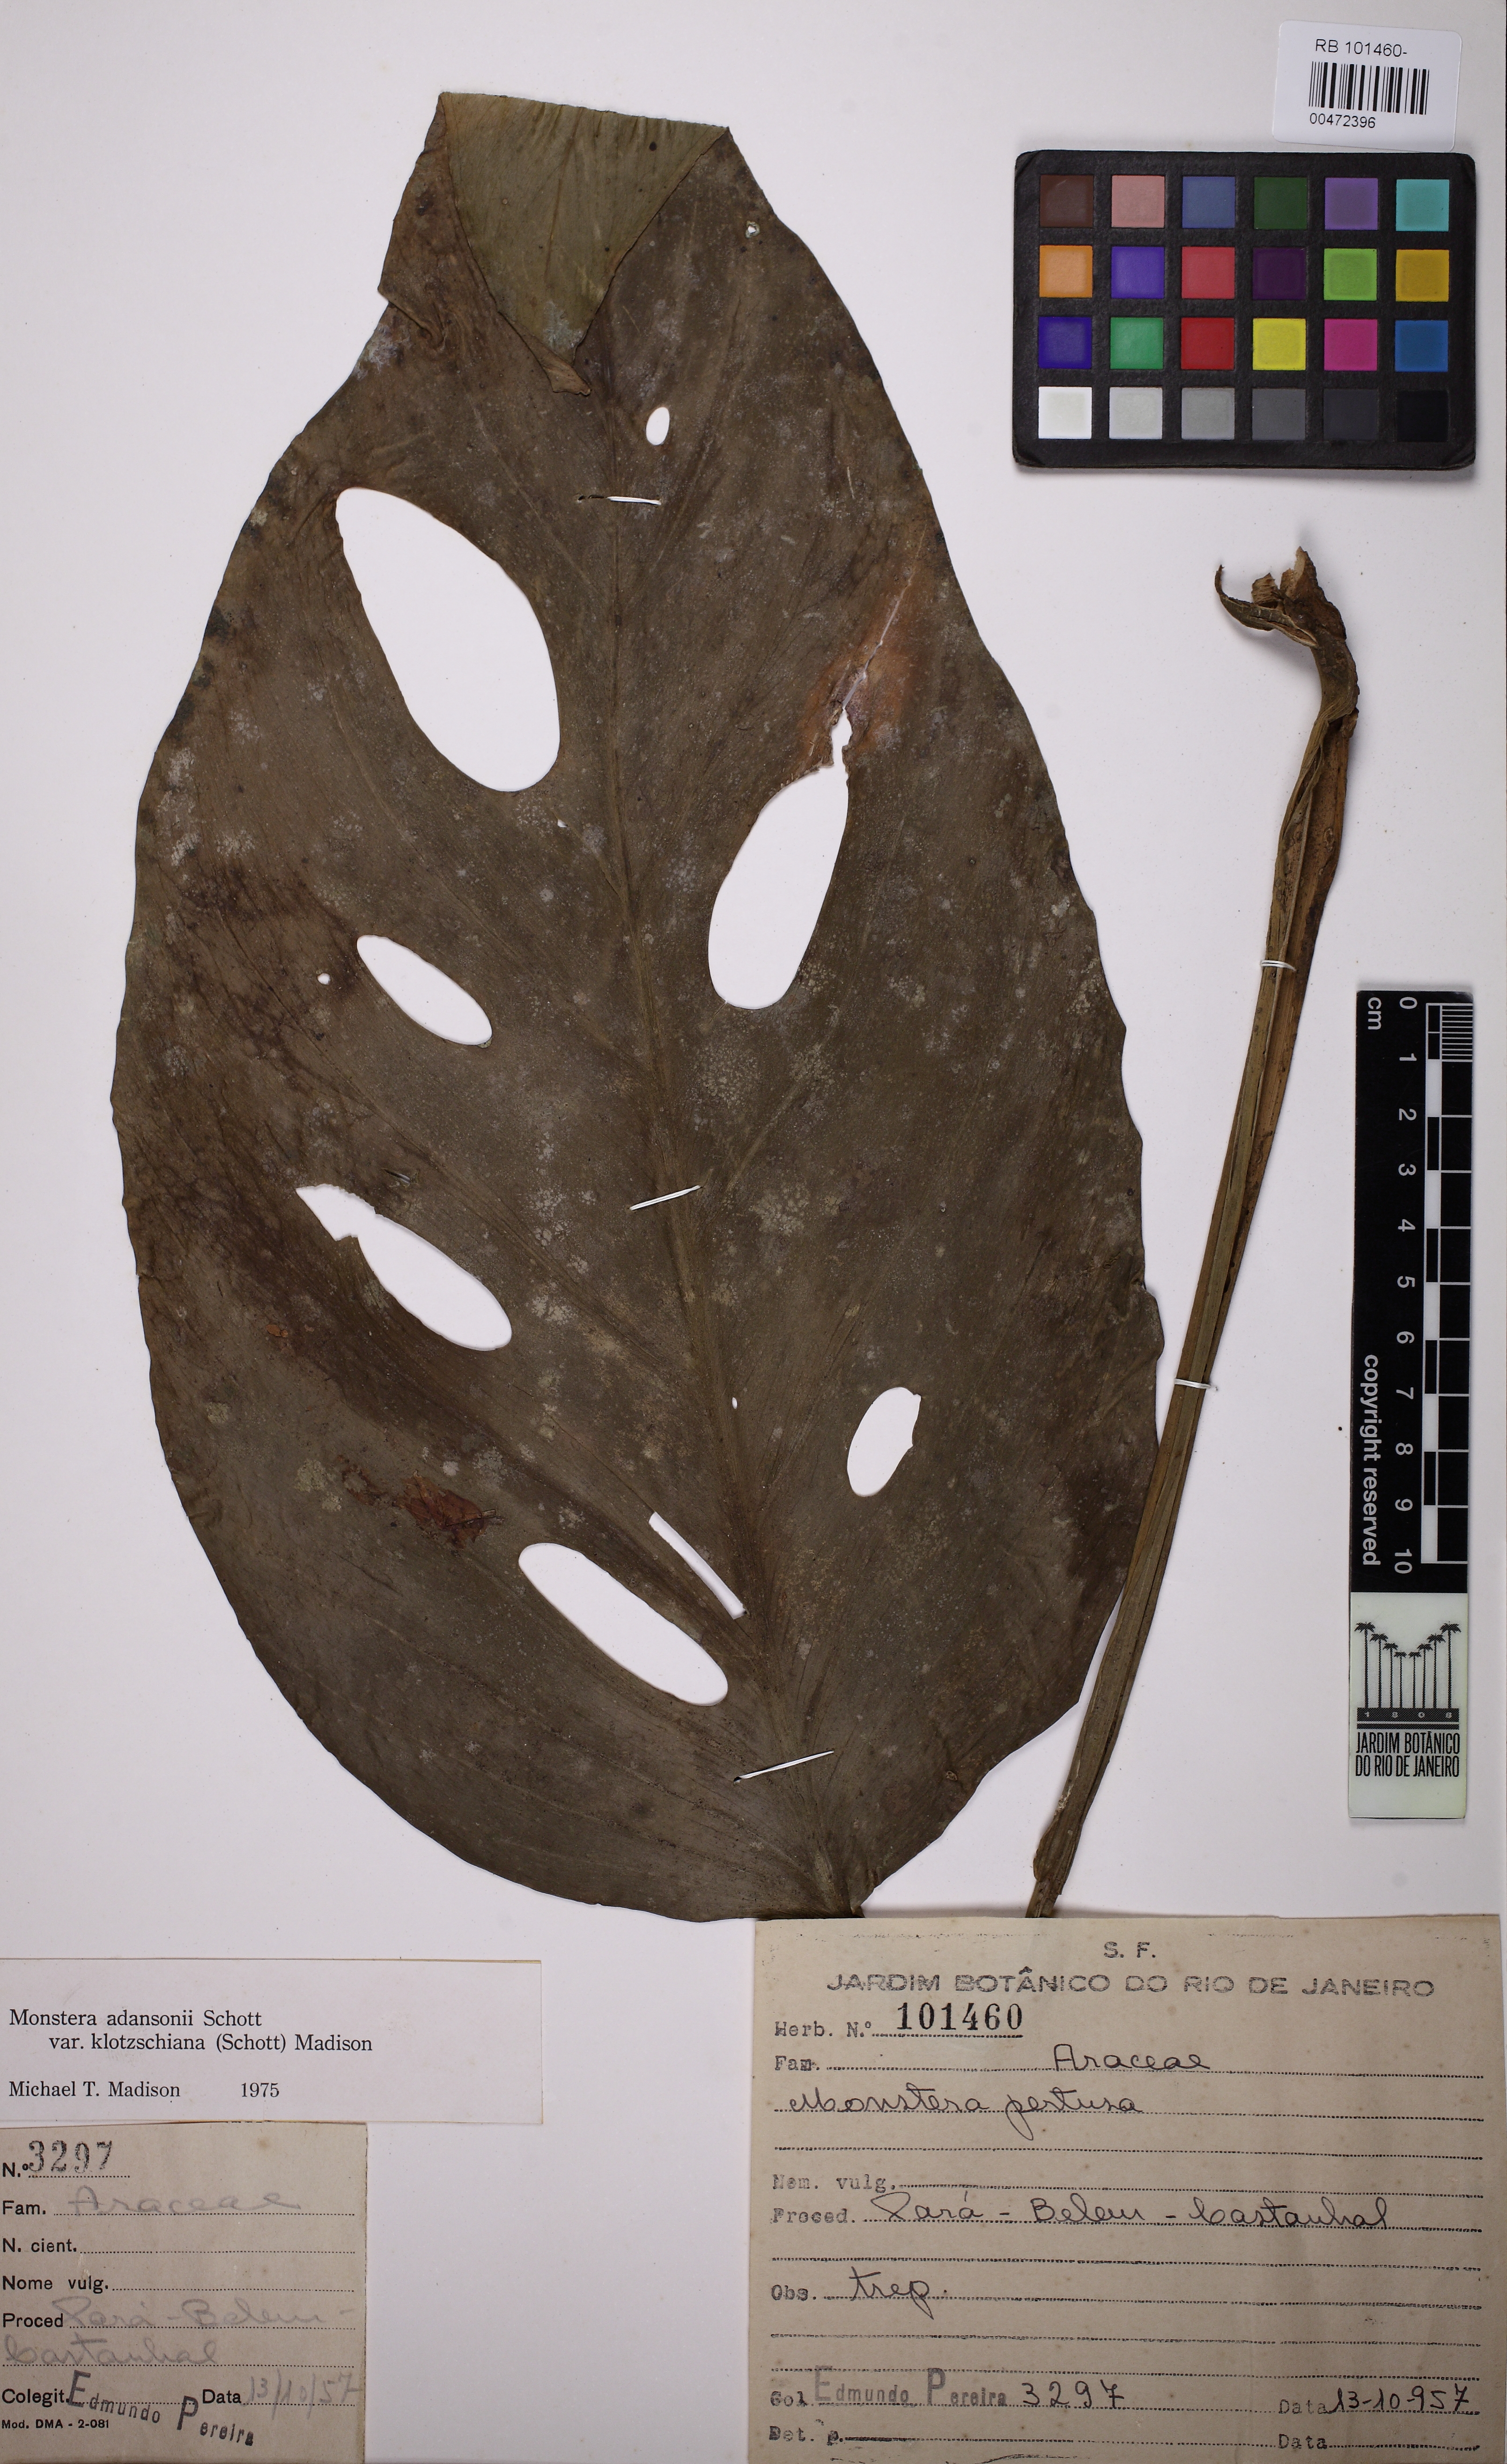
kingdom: Plantae
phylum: Tracheophyta
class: Liliopsida
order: Alismatales
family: Araceae
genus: Monstera
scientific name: Monstera adansonii
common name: Tarovine
